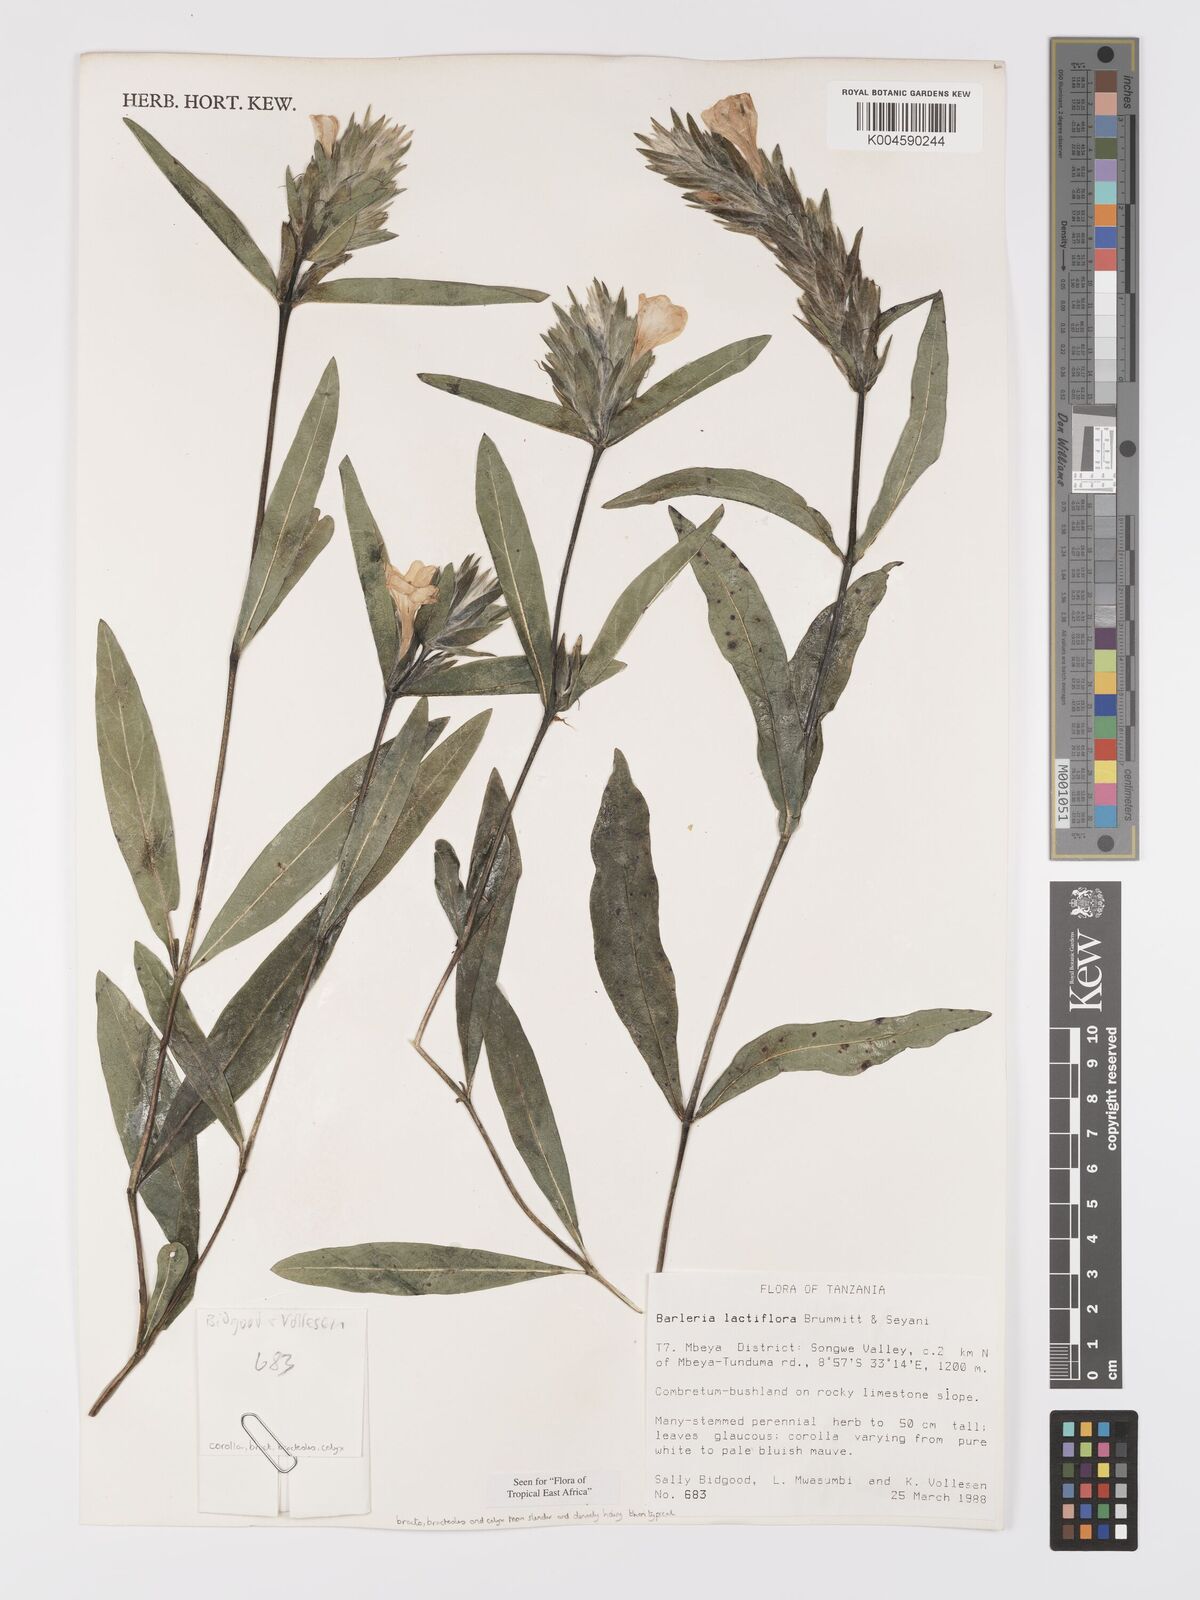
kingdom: Plantae
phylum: Tracheophyta
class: Magnoliopsida
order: Lamiales
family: Acanthaceae
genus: Barleria
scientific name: Barleria lactiflora
